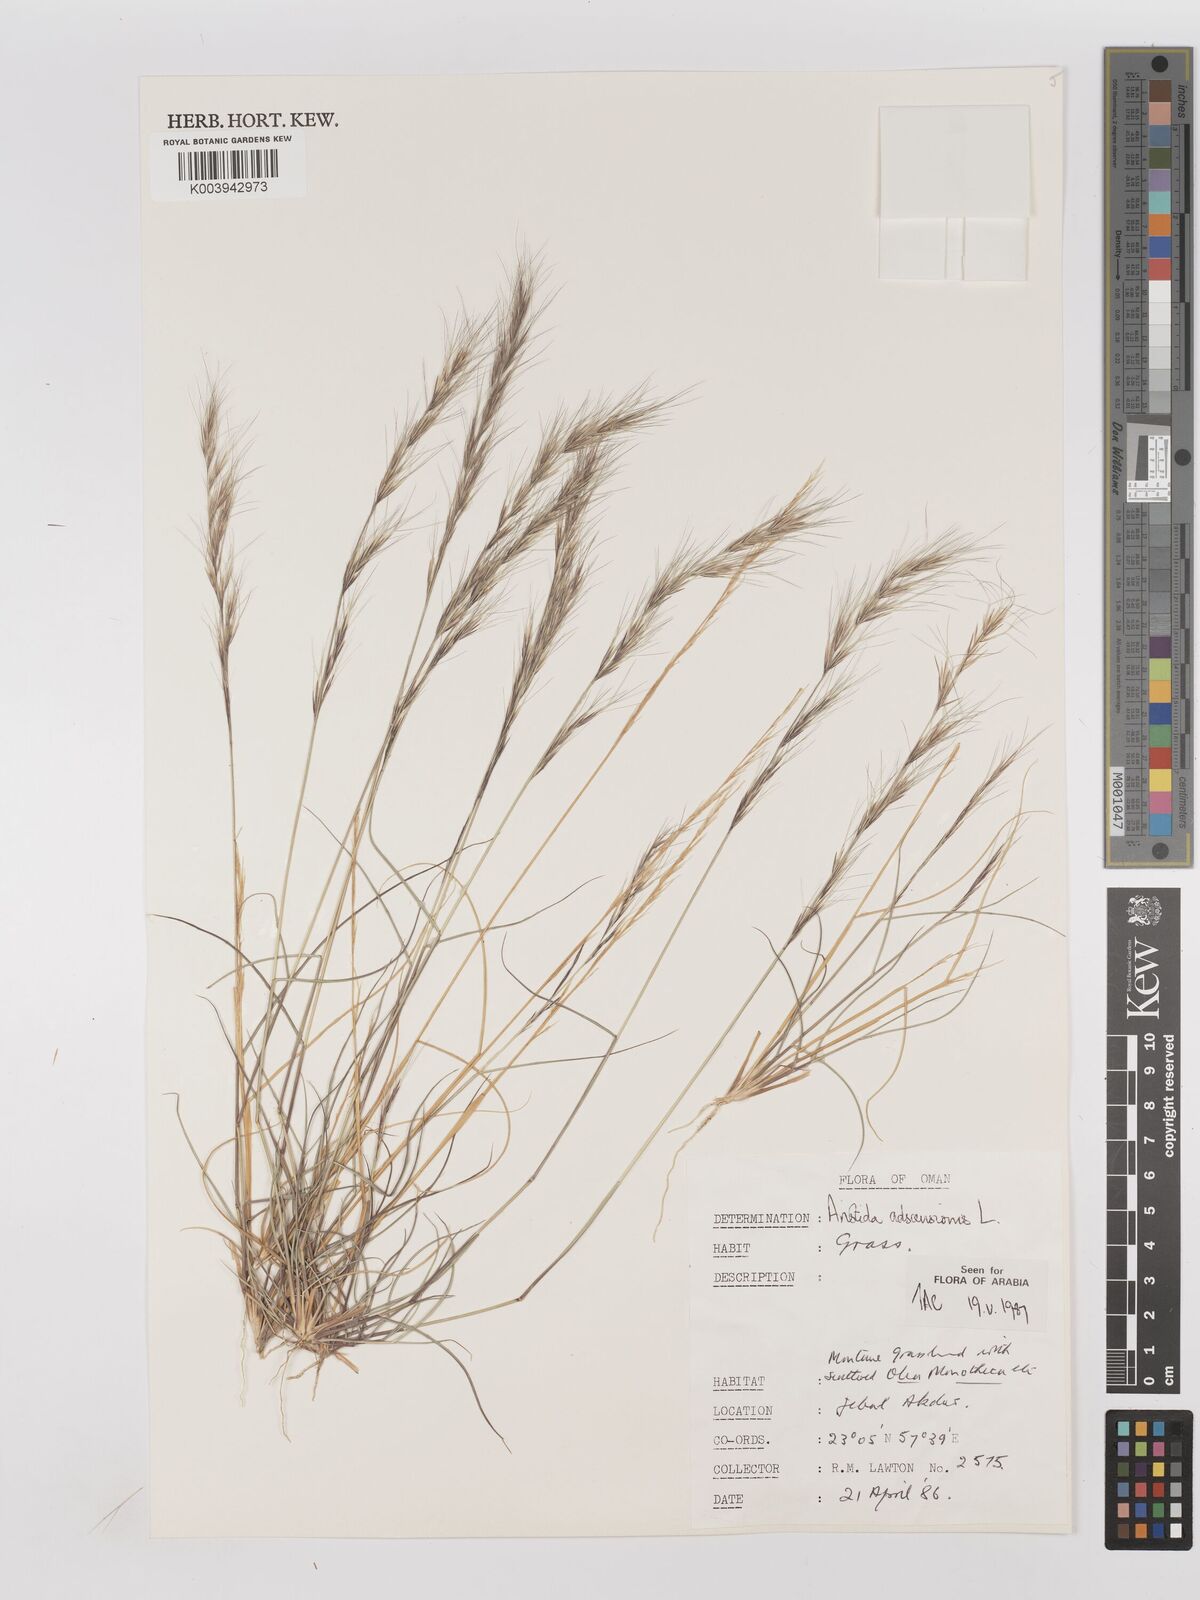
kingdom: Plantae
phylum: Tracheophyta
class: Liliopsida
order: Poales
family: Poaceae
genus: Aristida
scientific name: Aristida adscensionis
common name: Sixweeks threeawn
